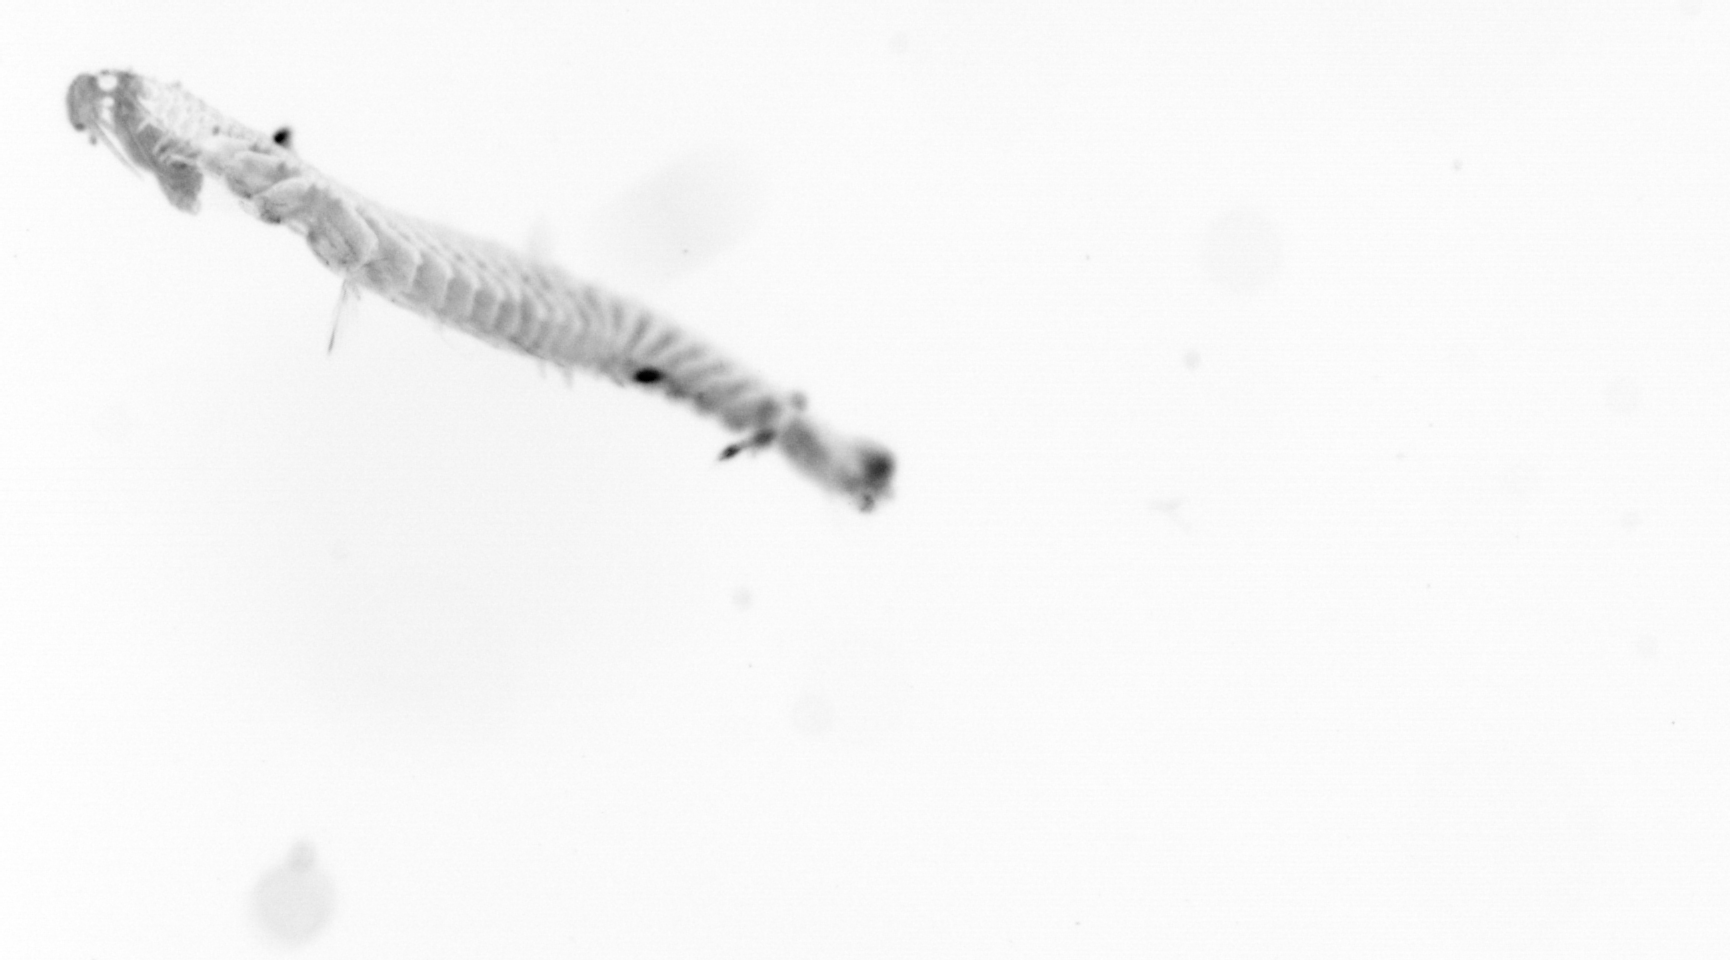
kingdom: Animalia
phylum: Annelida
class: Polychaeta
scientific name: Polychaeta
